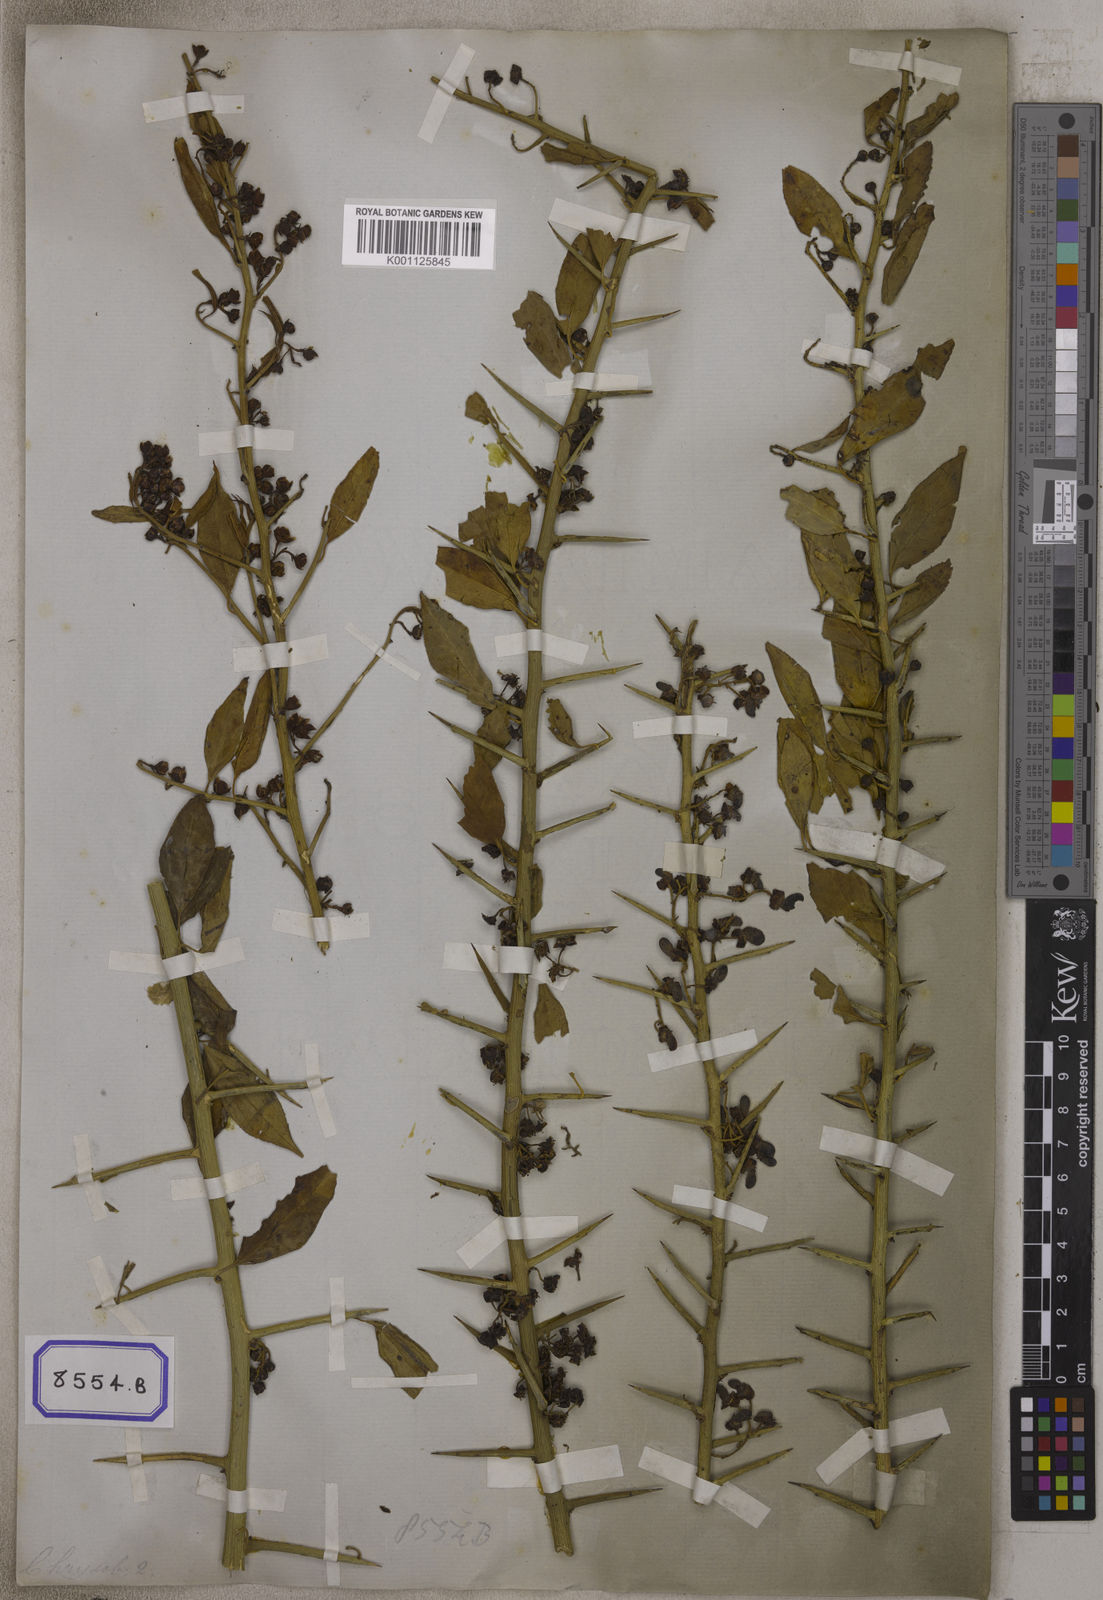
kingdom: Plantae
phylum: Tracheophyta
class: Magnoliopsida
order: Rosales
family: Rosaceae
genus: Prinsepia
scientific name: Prinsepia utilis
